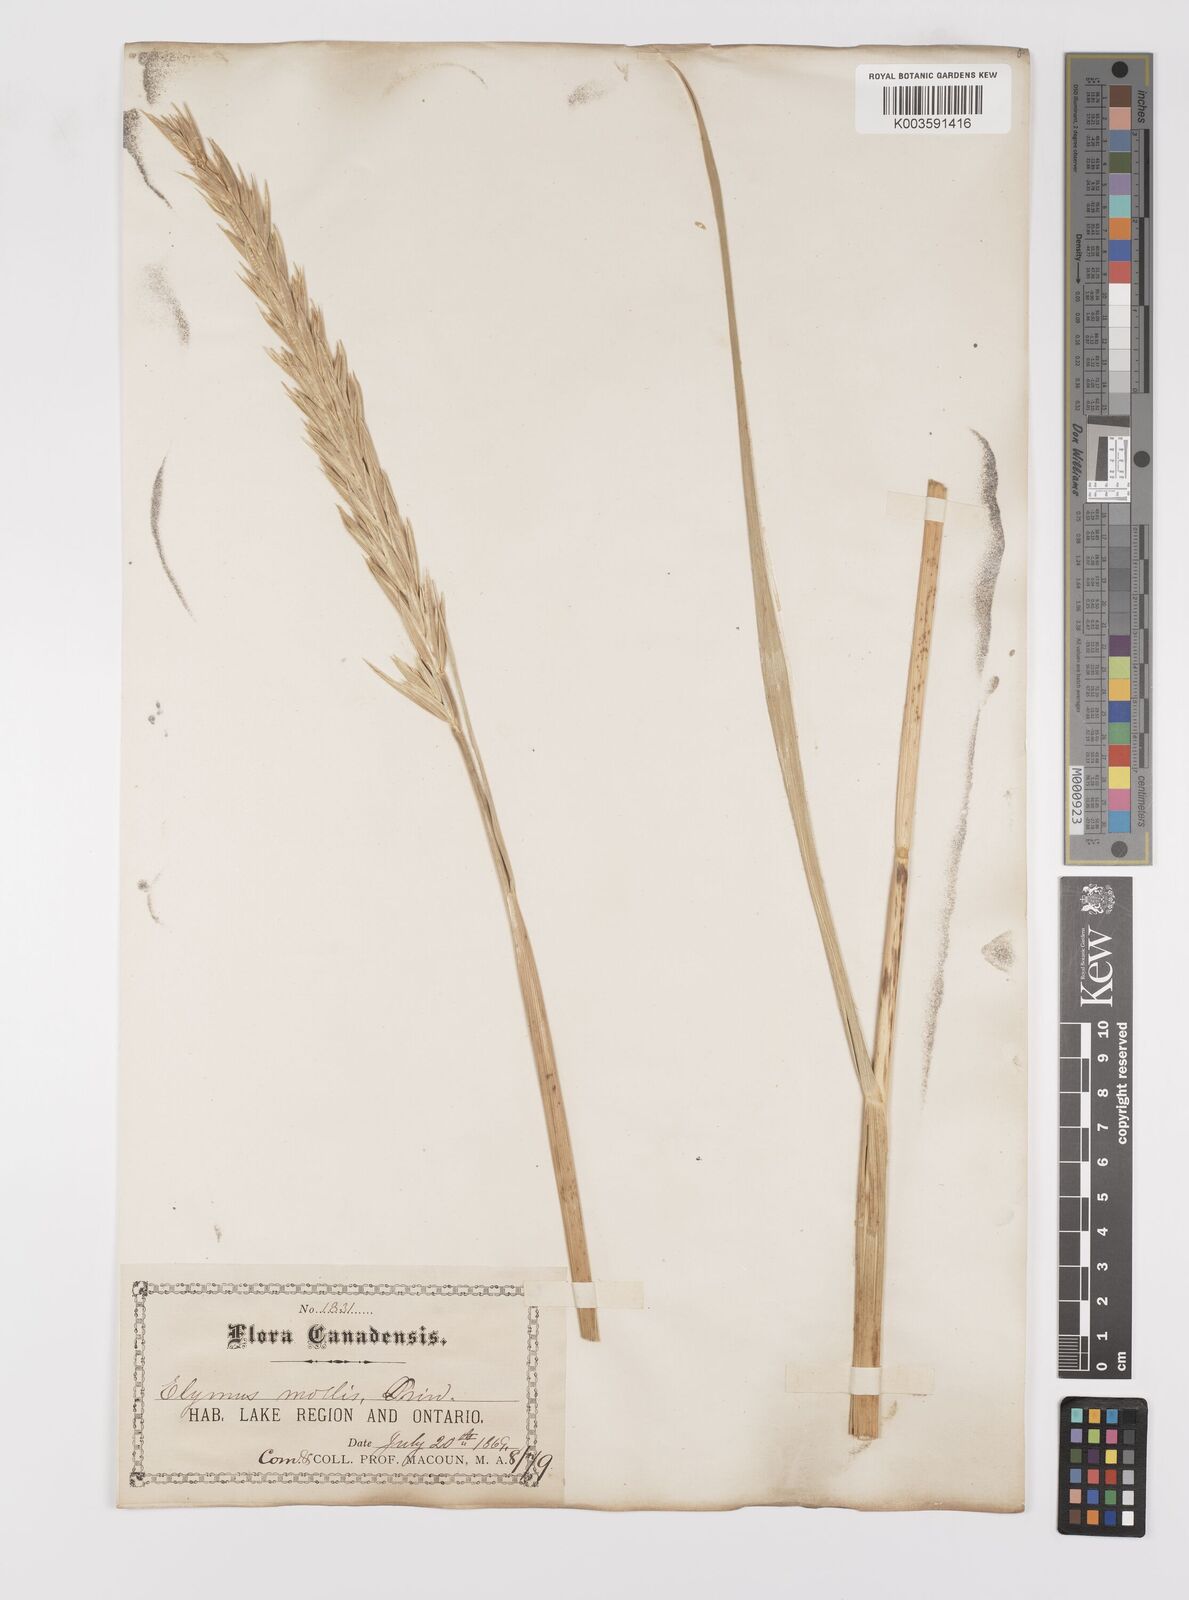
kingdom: Plantae
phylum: Tracheophyta
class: Liliopsida
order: Poales
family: Poaceae
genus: Leymus
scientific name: Leymus mollis
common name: American dune grass
